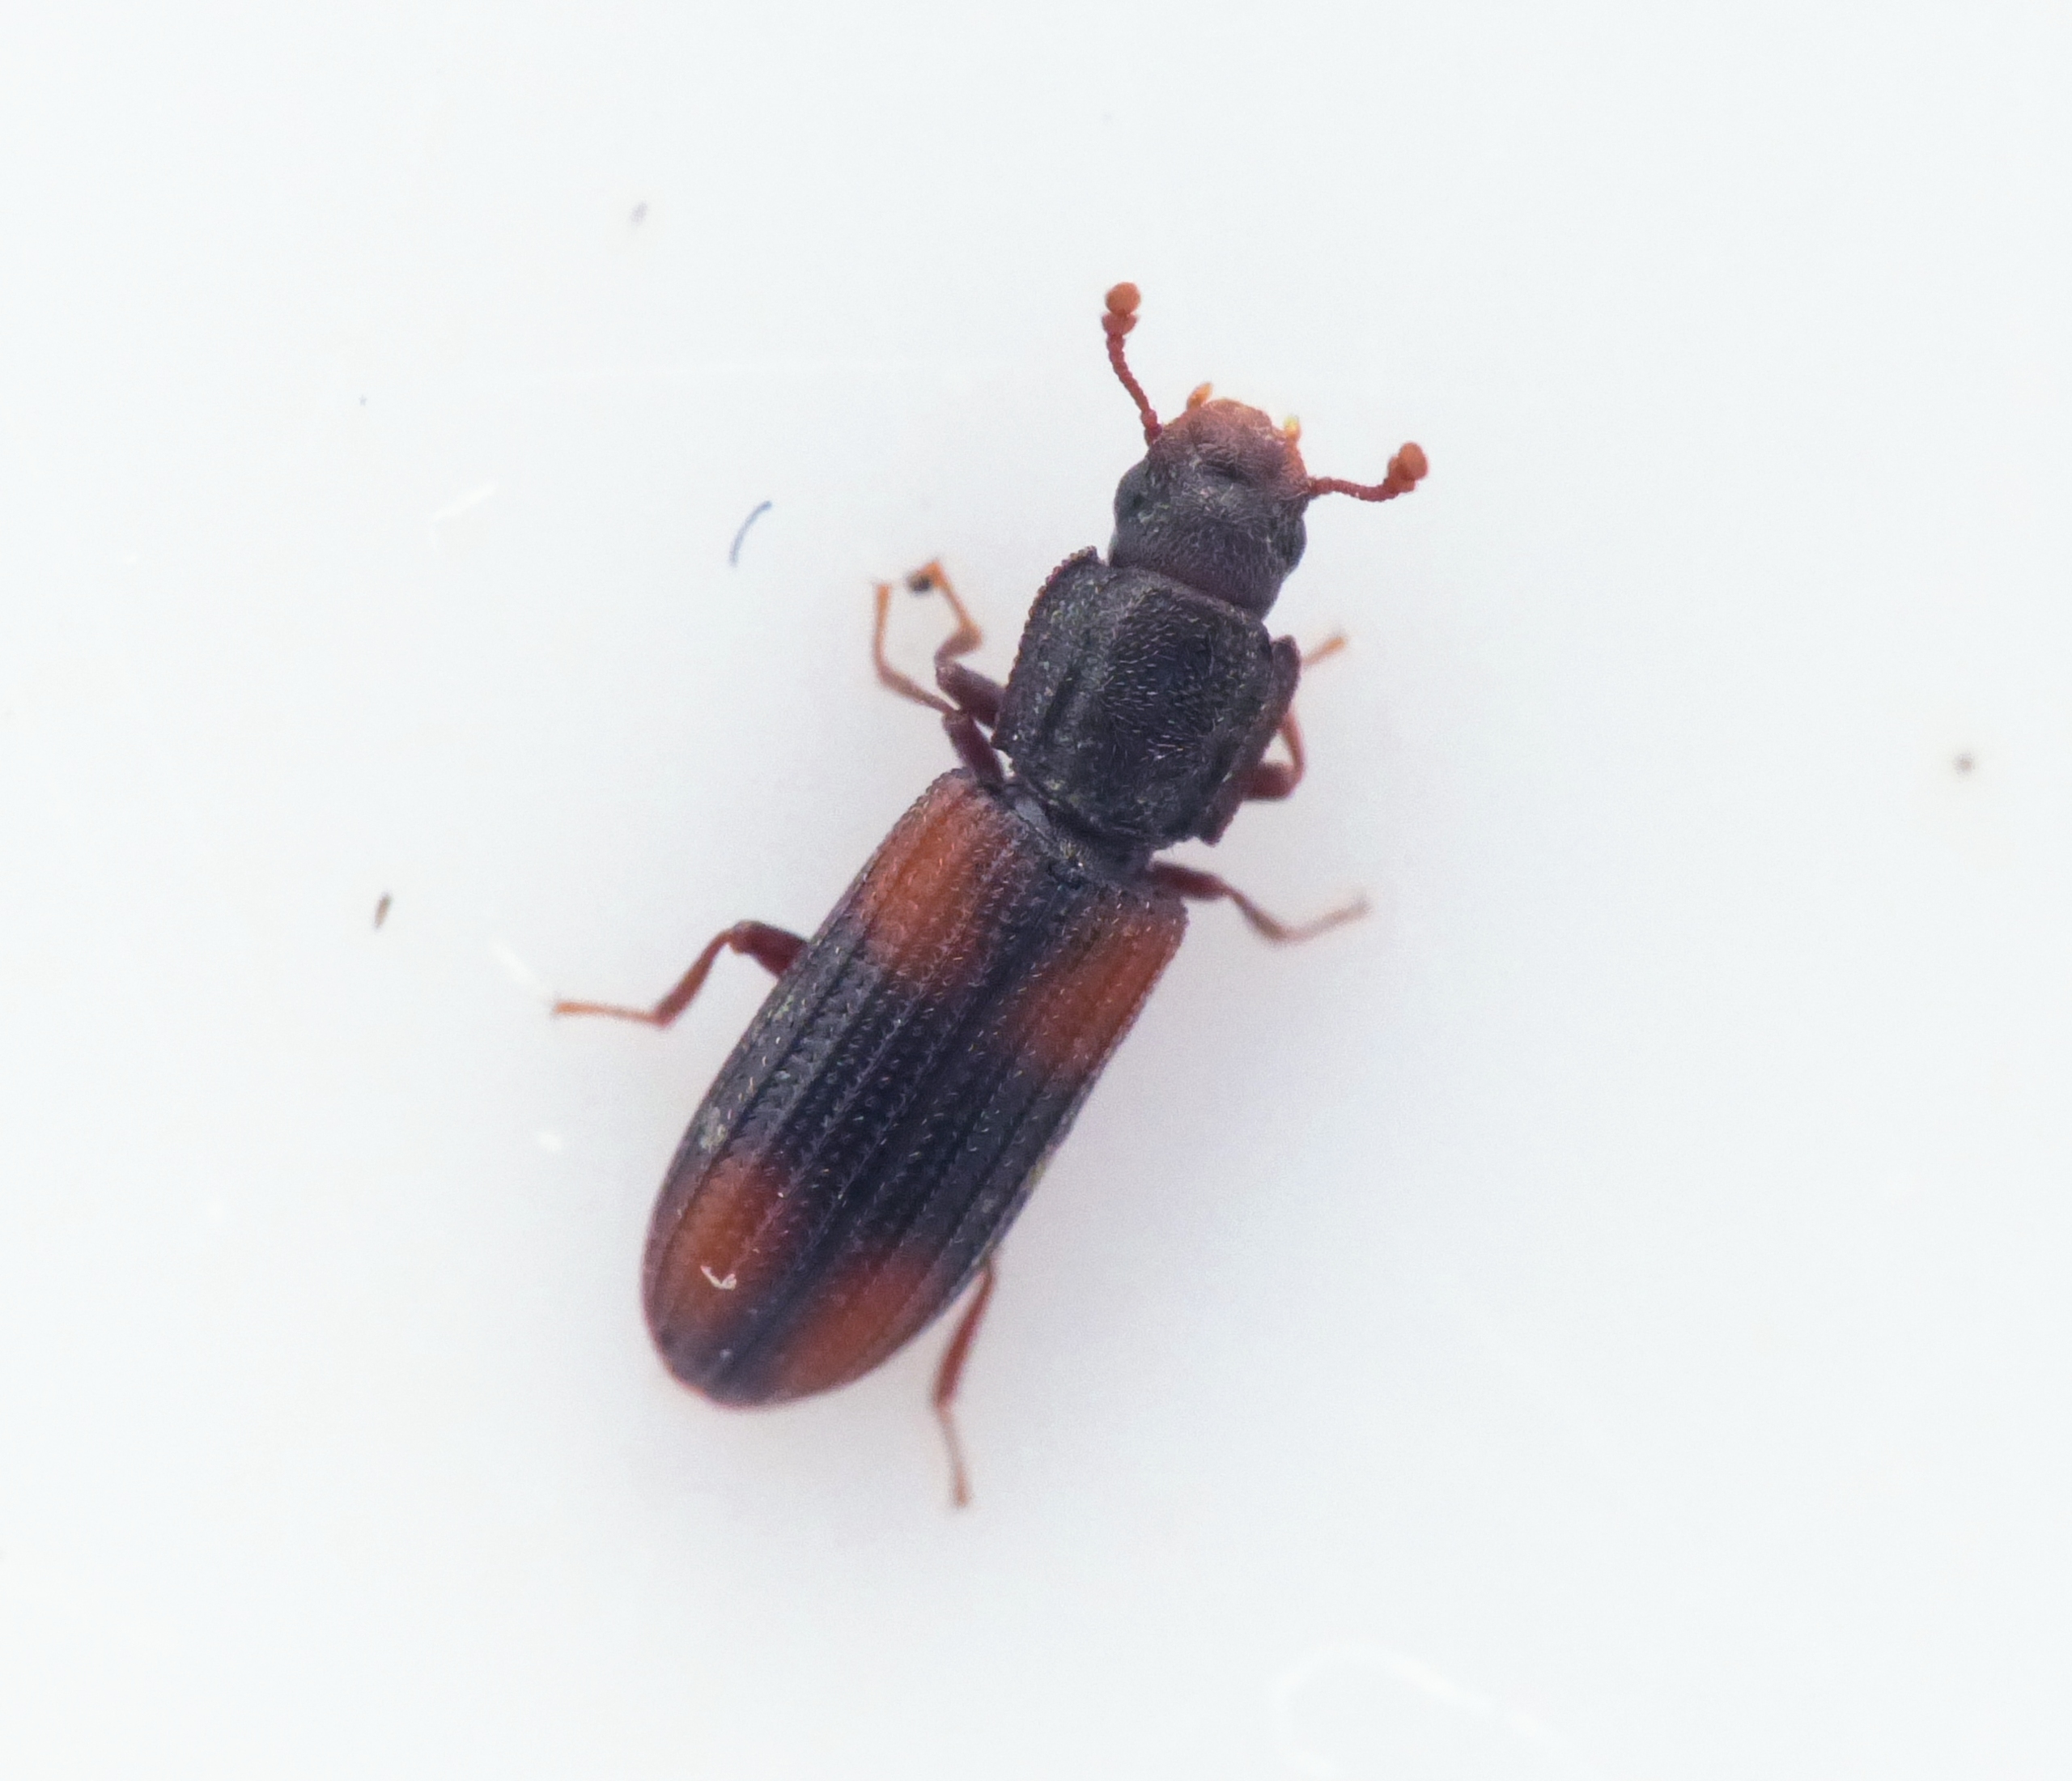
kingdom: Animalia
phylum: Arthropoda
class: Insecta
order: Coleoptera
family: Zopheridae
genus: Bitoma
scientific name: Bitoma crenata
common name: Dannebrogsbille
